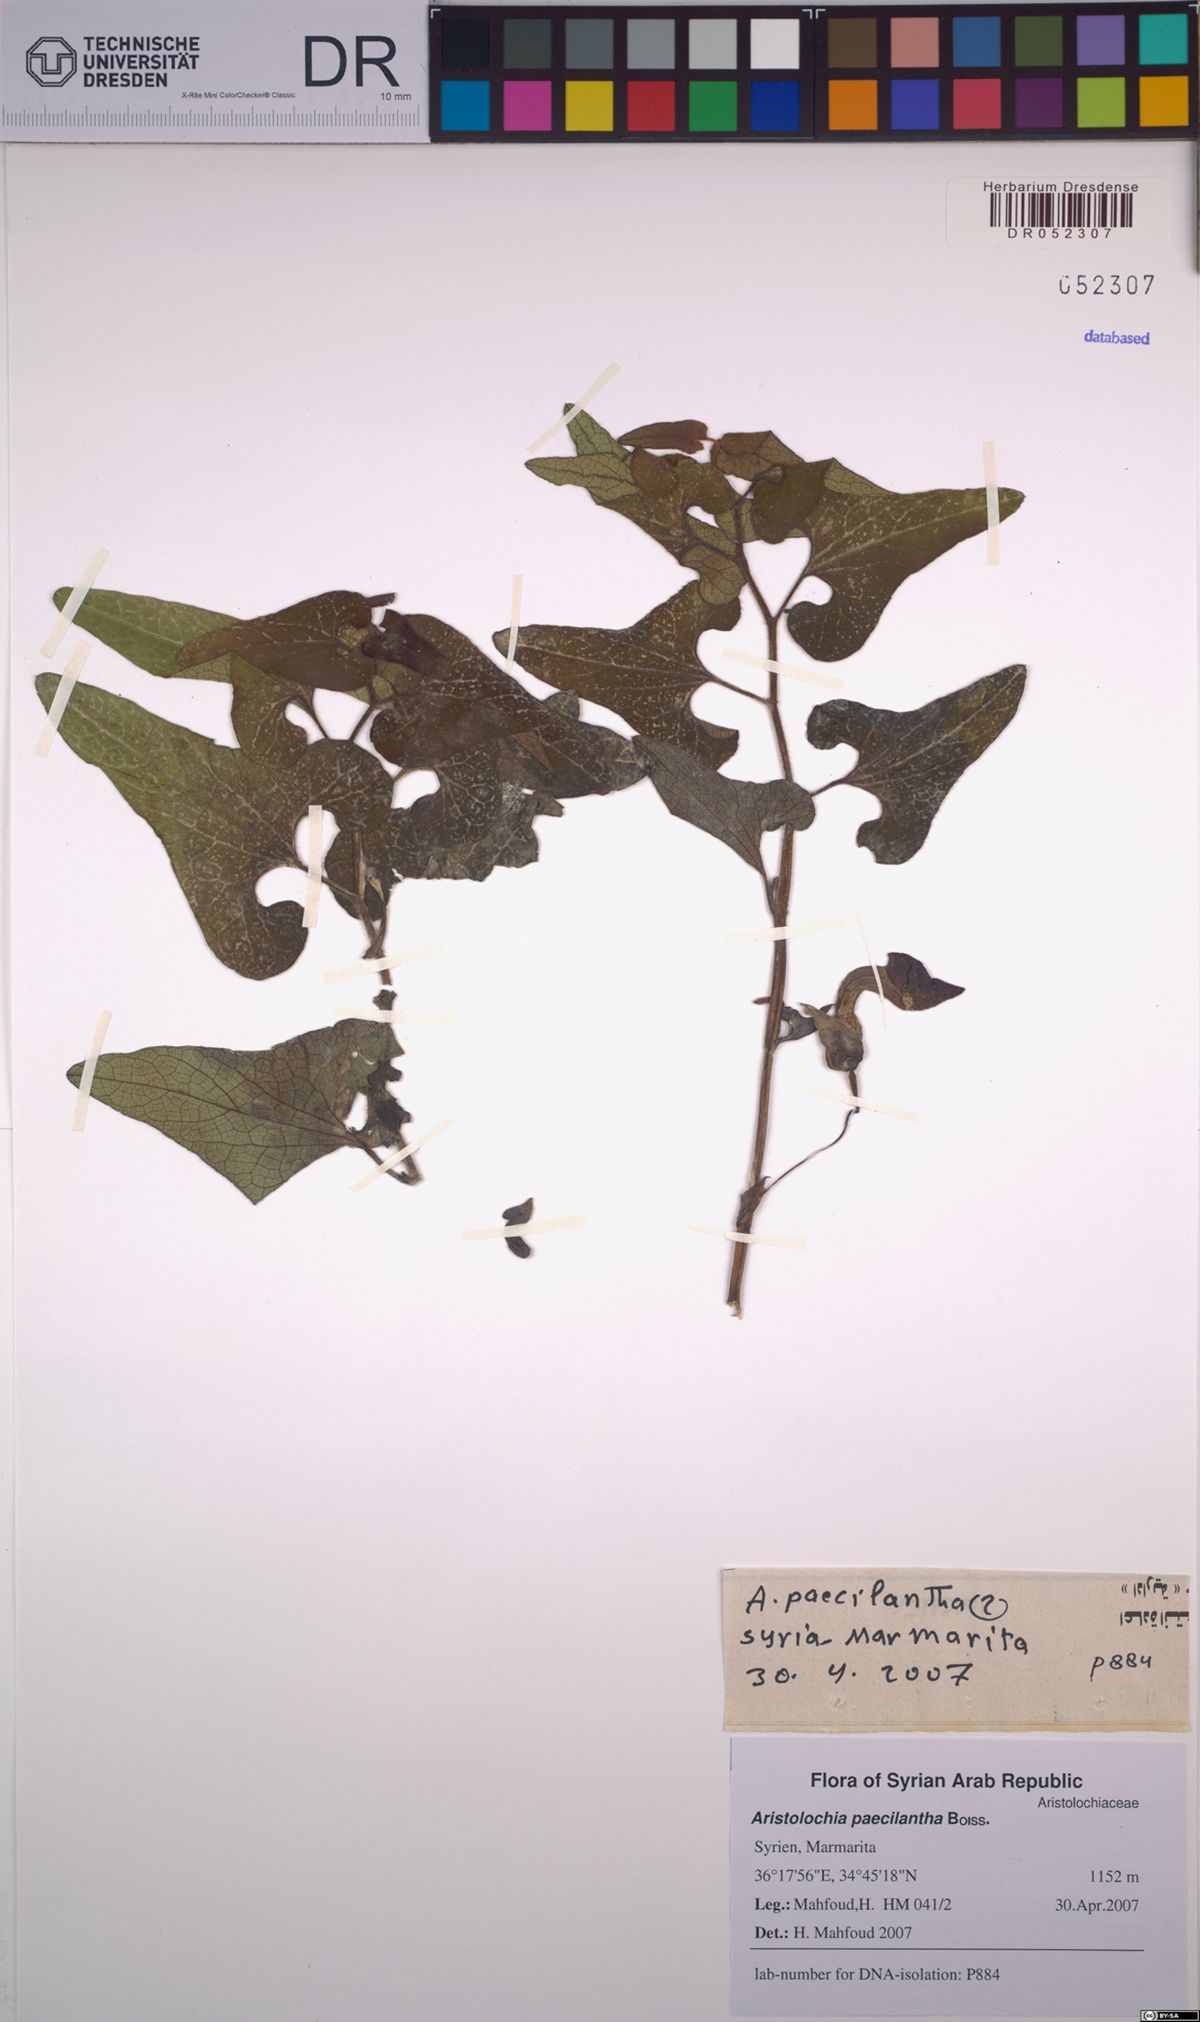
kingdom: Plantae
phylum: Tracheophyta
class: Magnoliopsida
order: Piperales
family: Aristolochiaceae
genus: Aristolochia
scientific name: Aristolochia paecilantha
